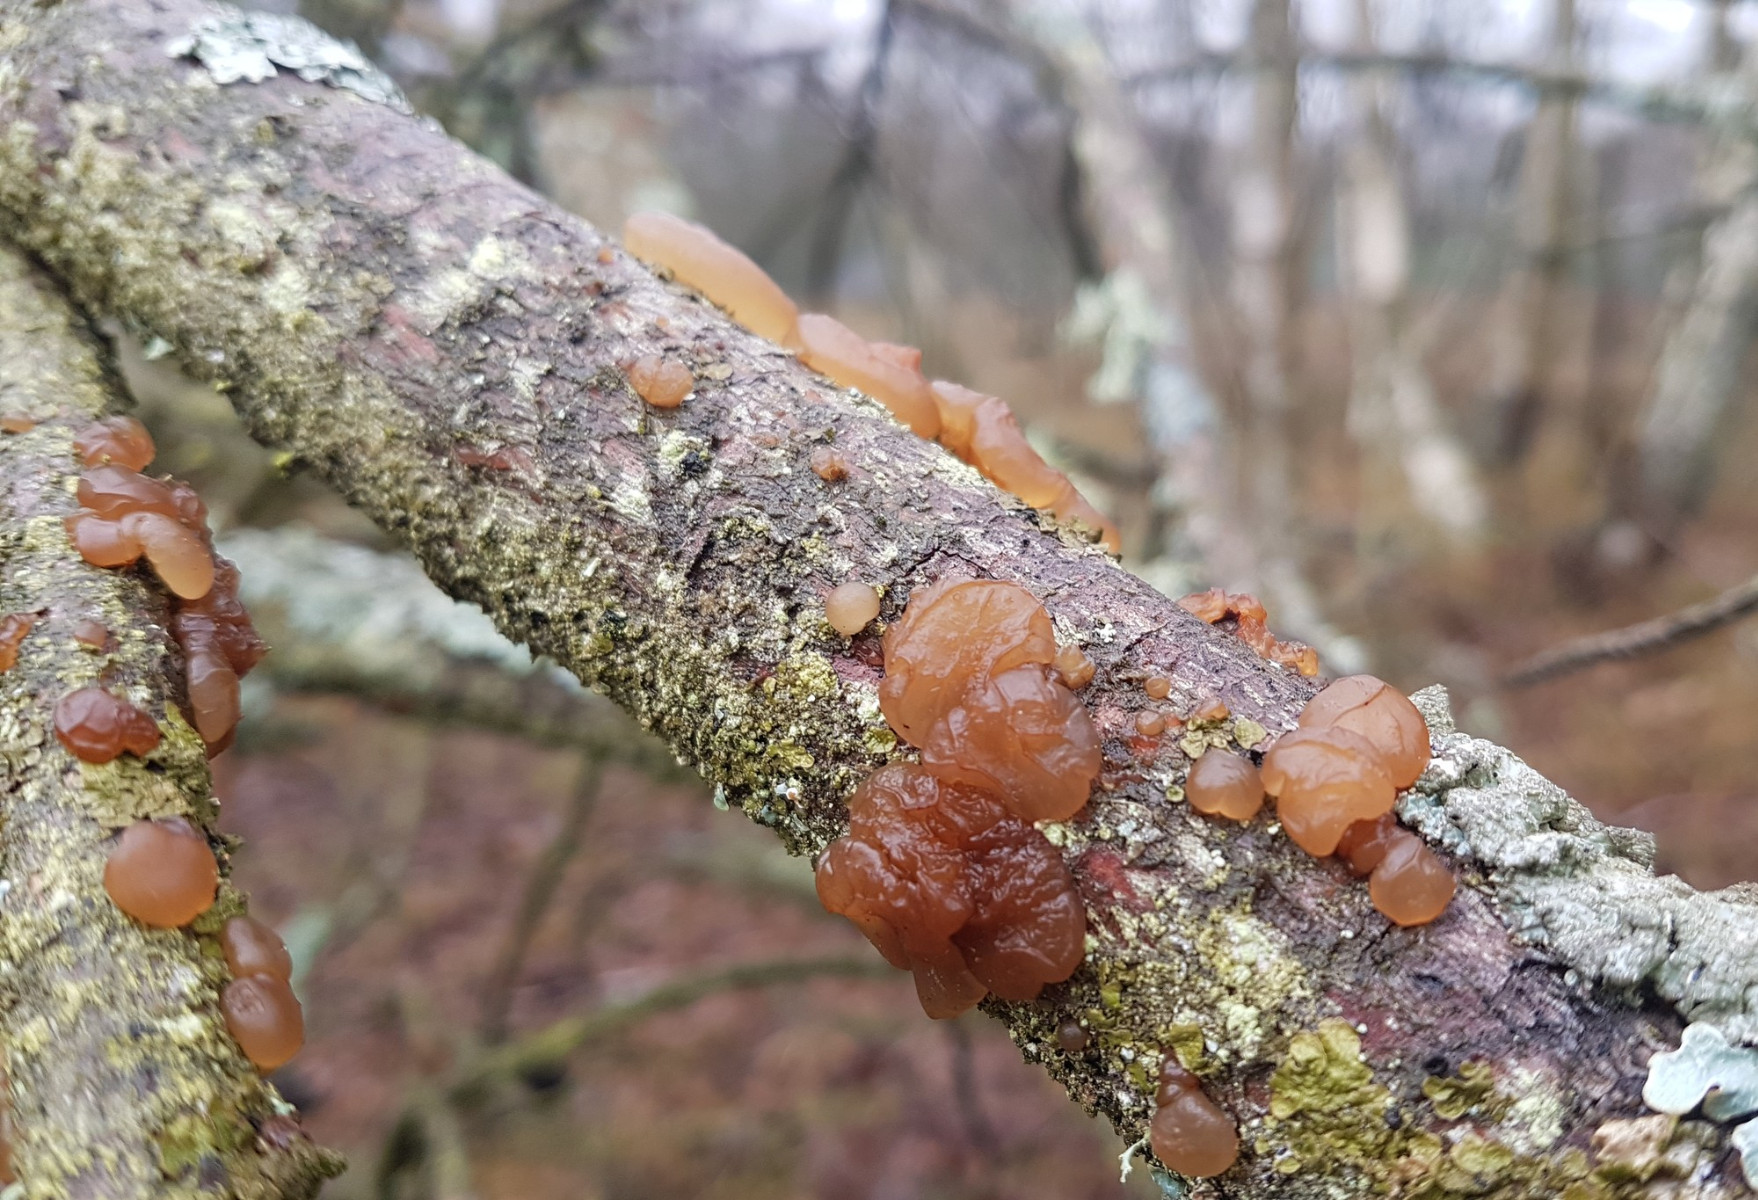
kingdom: Fungi
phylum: Basidiomycota
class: Agaricomycetes
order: Auriculariales
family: Auriculariaceae
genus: Exidia
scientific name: Exidia saccharina
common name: kandis-bævretop
